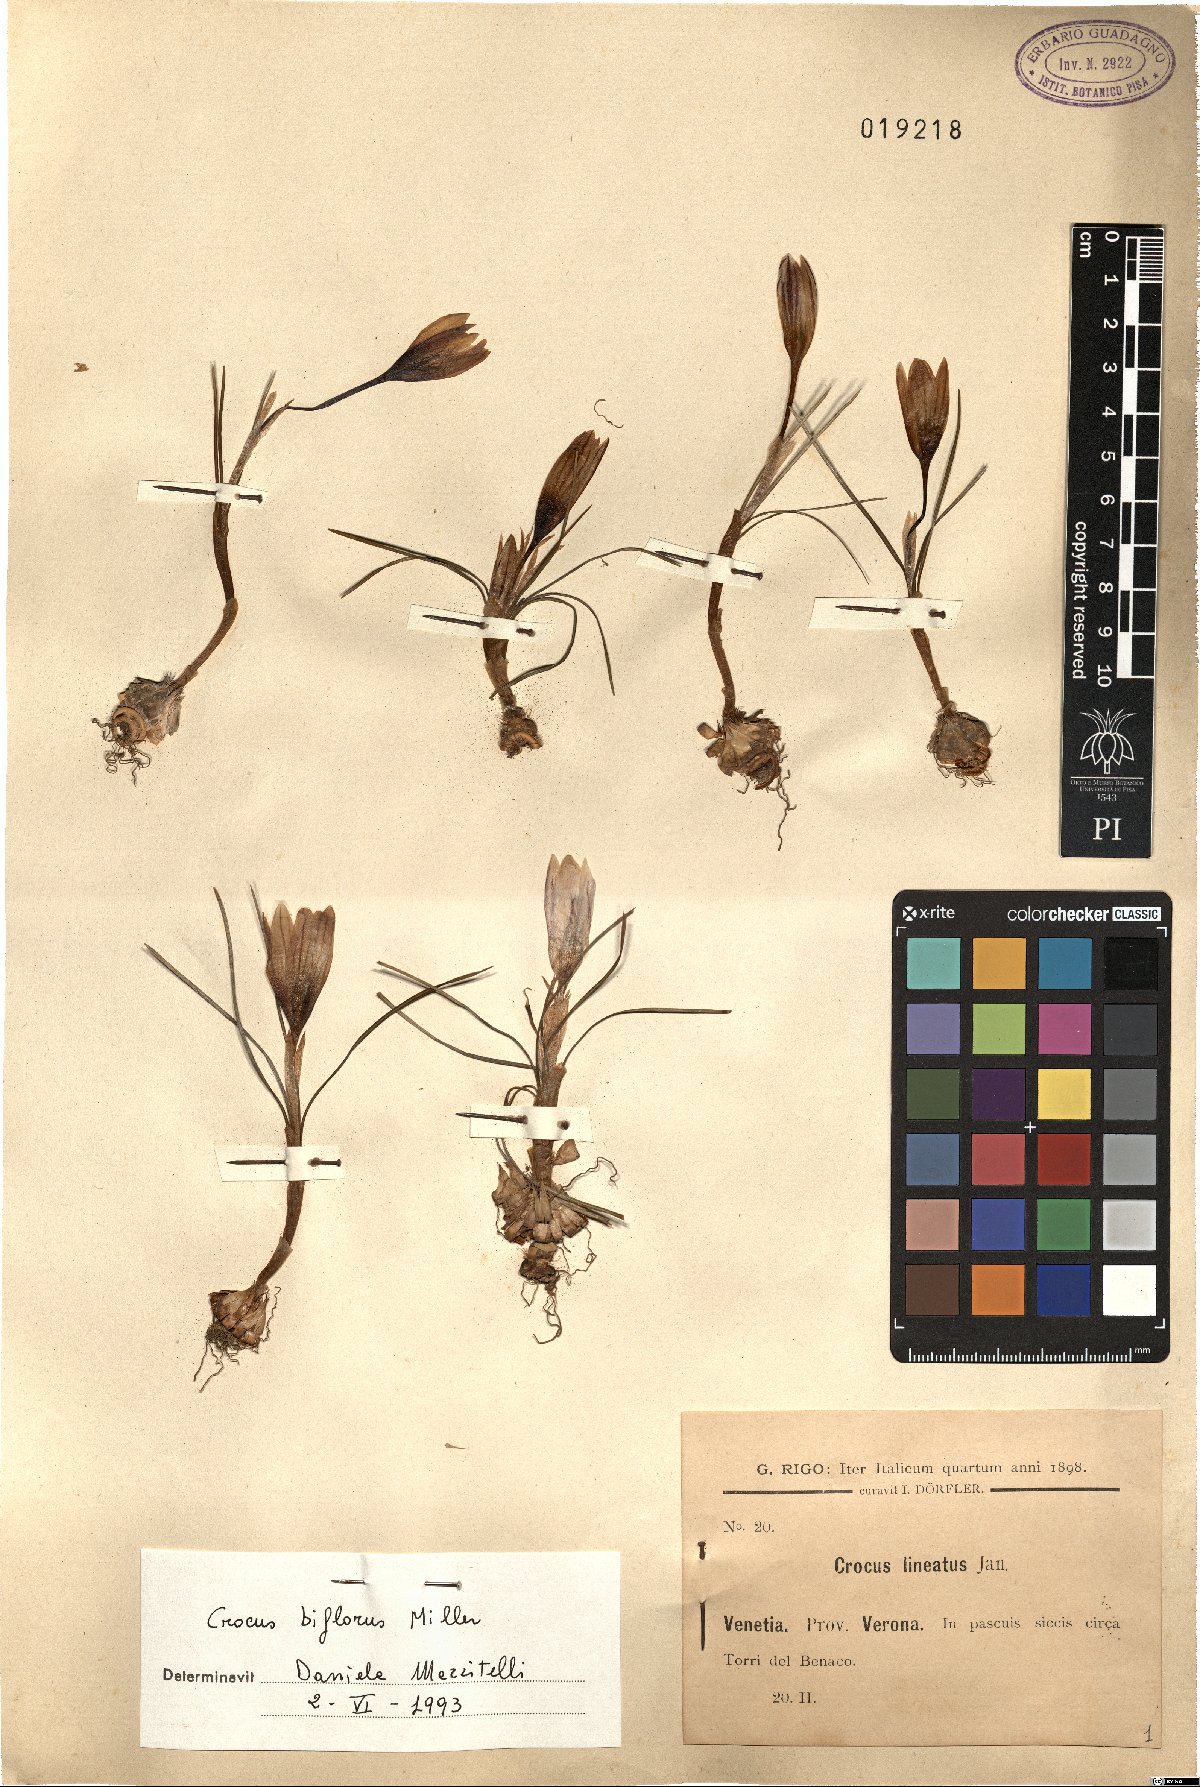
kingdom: Plantae
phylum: Tracheophyta
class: Liliopsida
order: Asparagales
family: Iridaceae
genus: Crocus
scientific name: Crocus biflorus
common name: Silvery crocus
